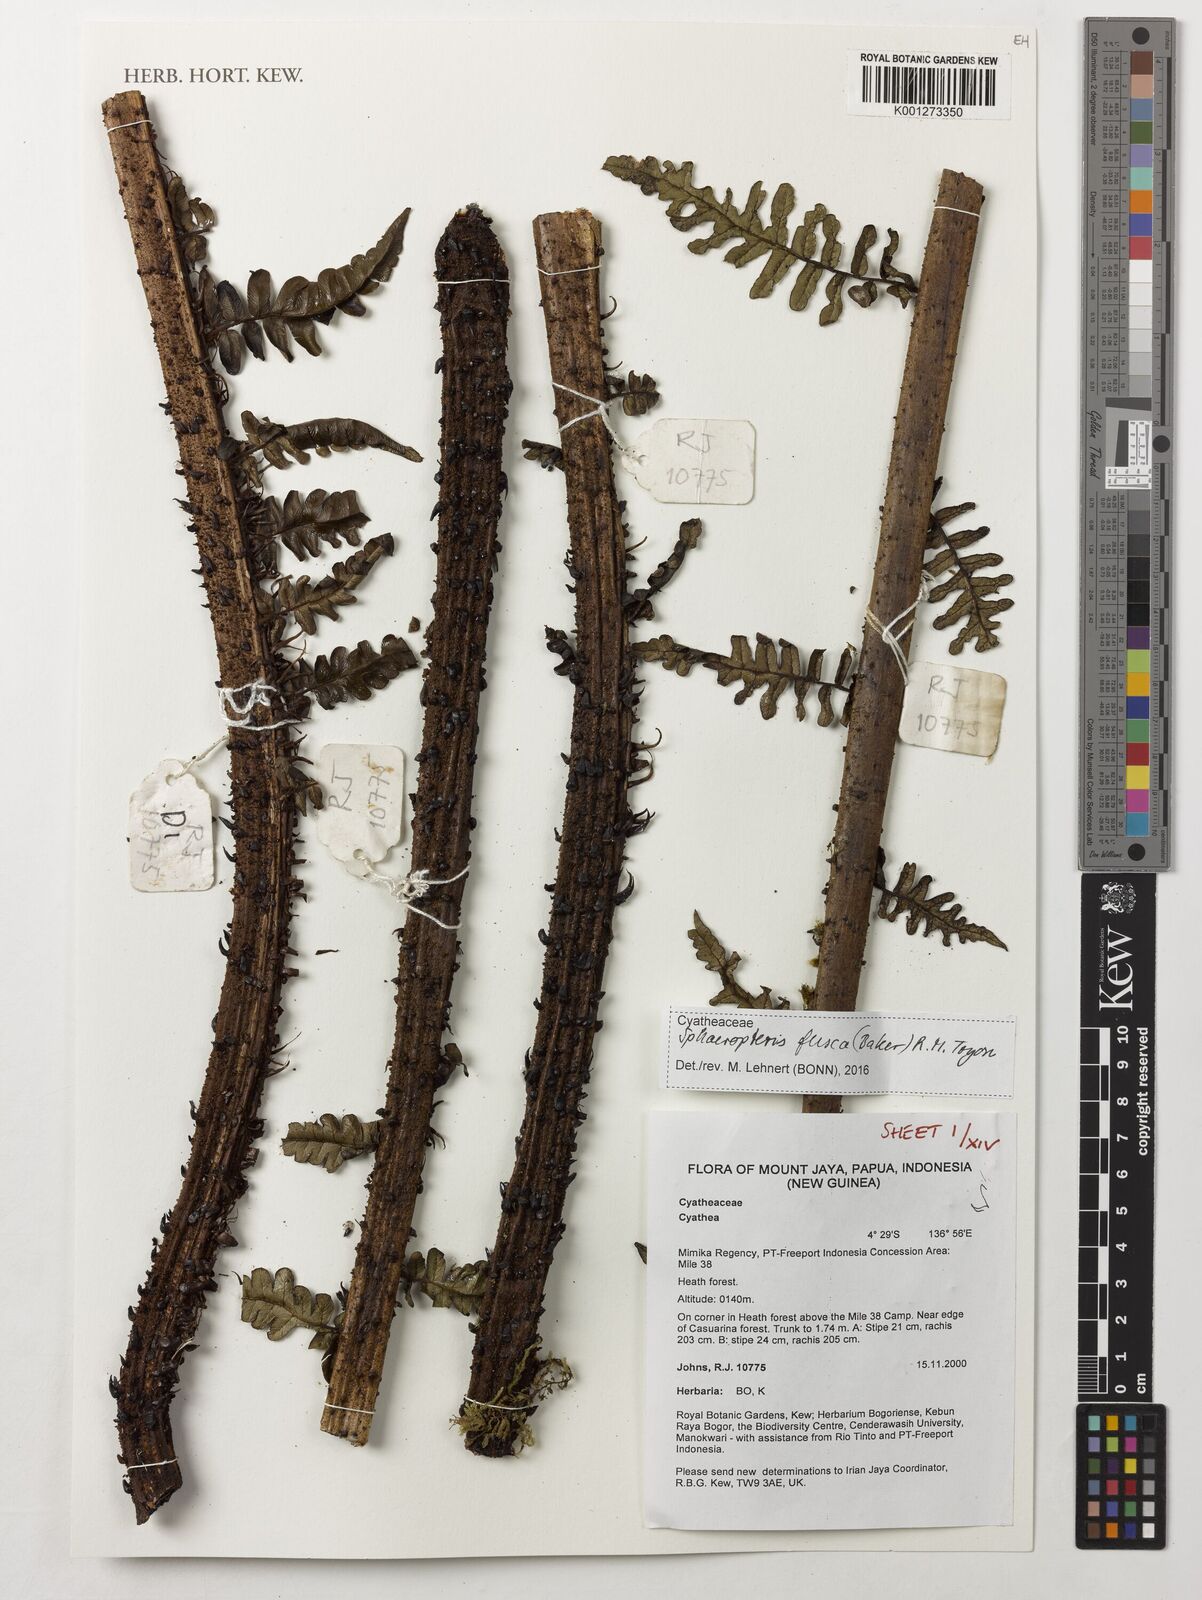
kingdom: Plantae
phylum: Tracheophyta
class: Polypodiopsida
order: Cyatheales
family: Cyatheaceae
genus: Sphaeropteris
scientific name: Sphaeropteris fusca
